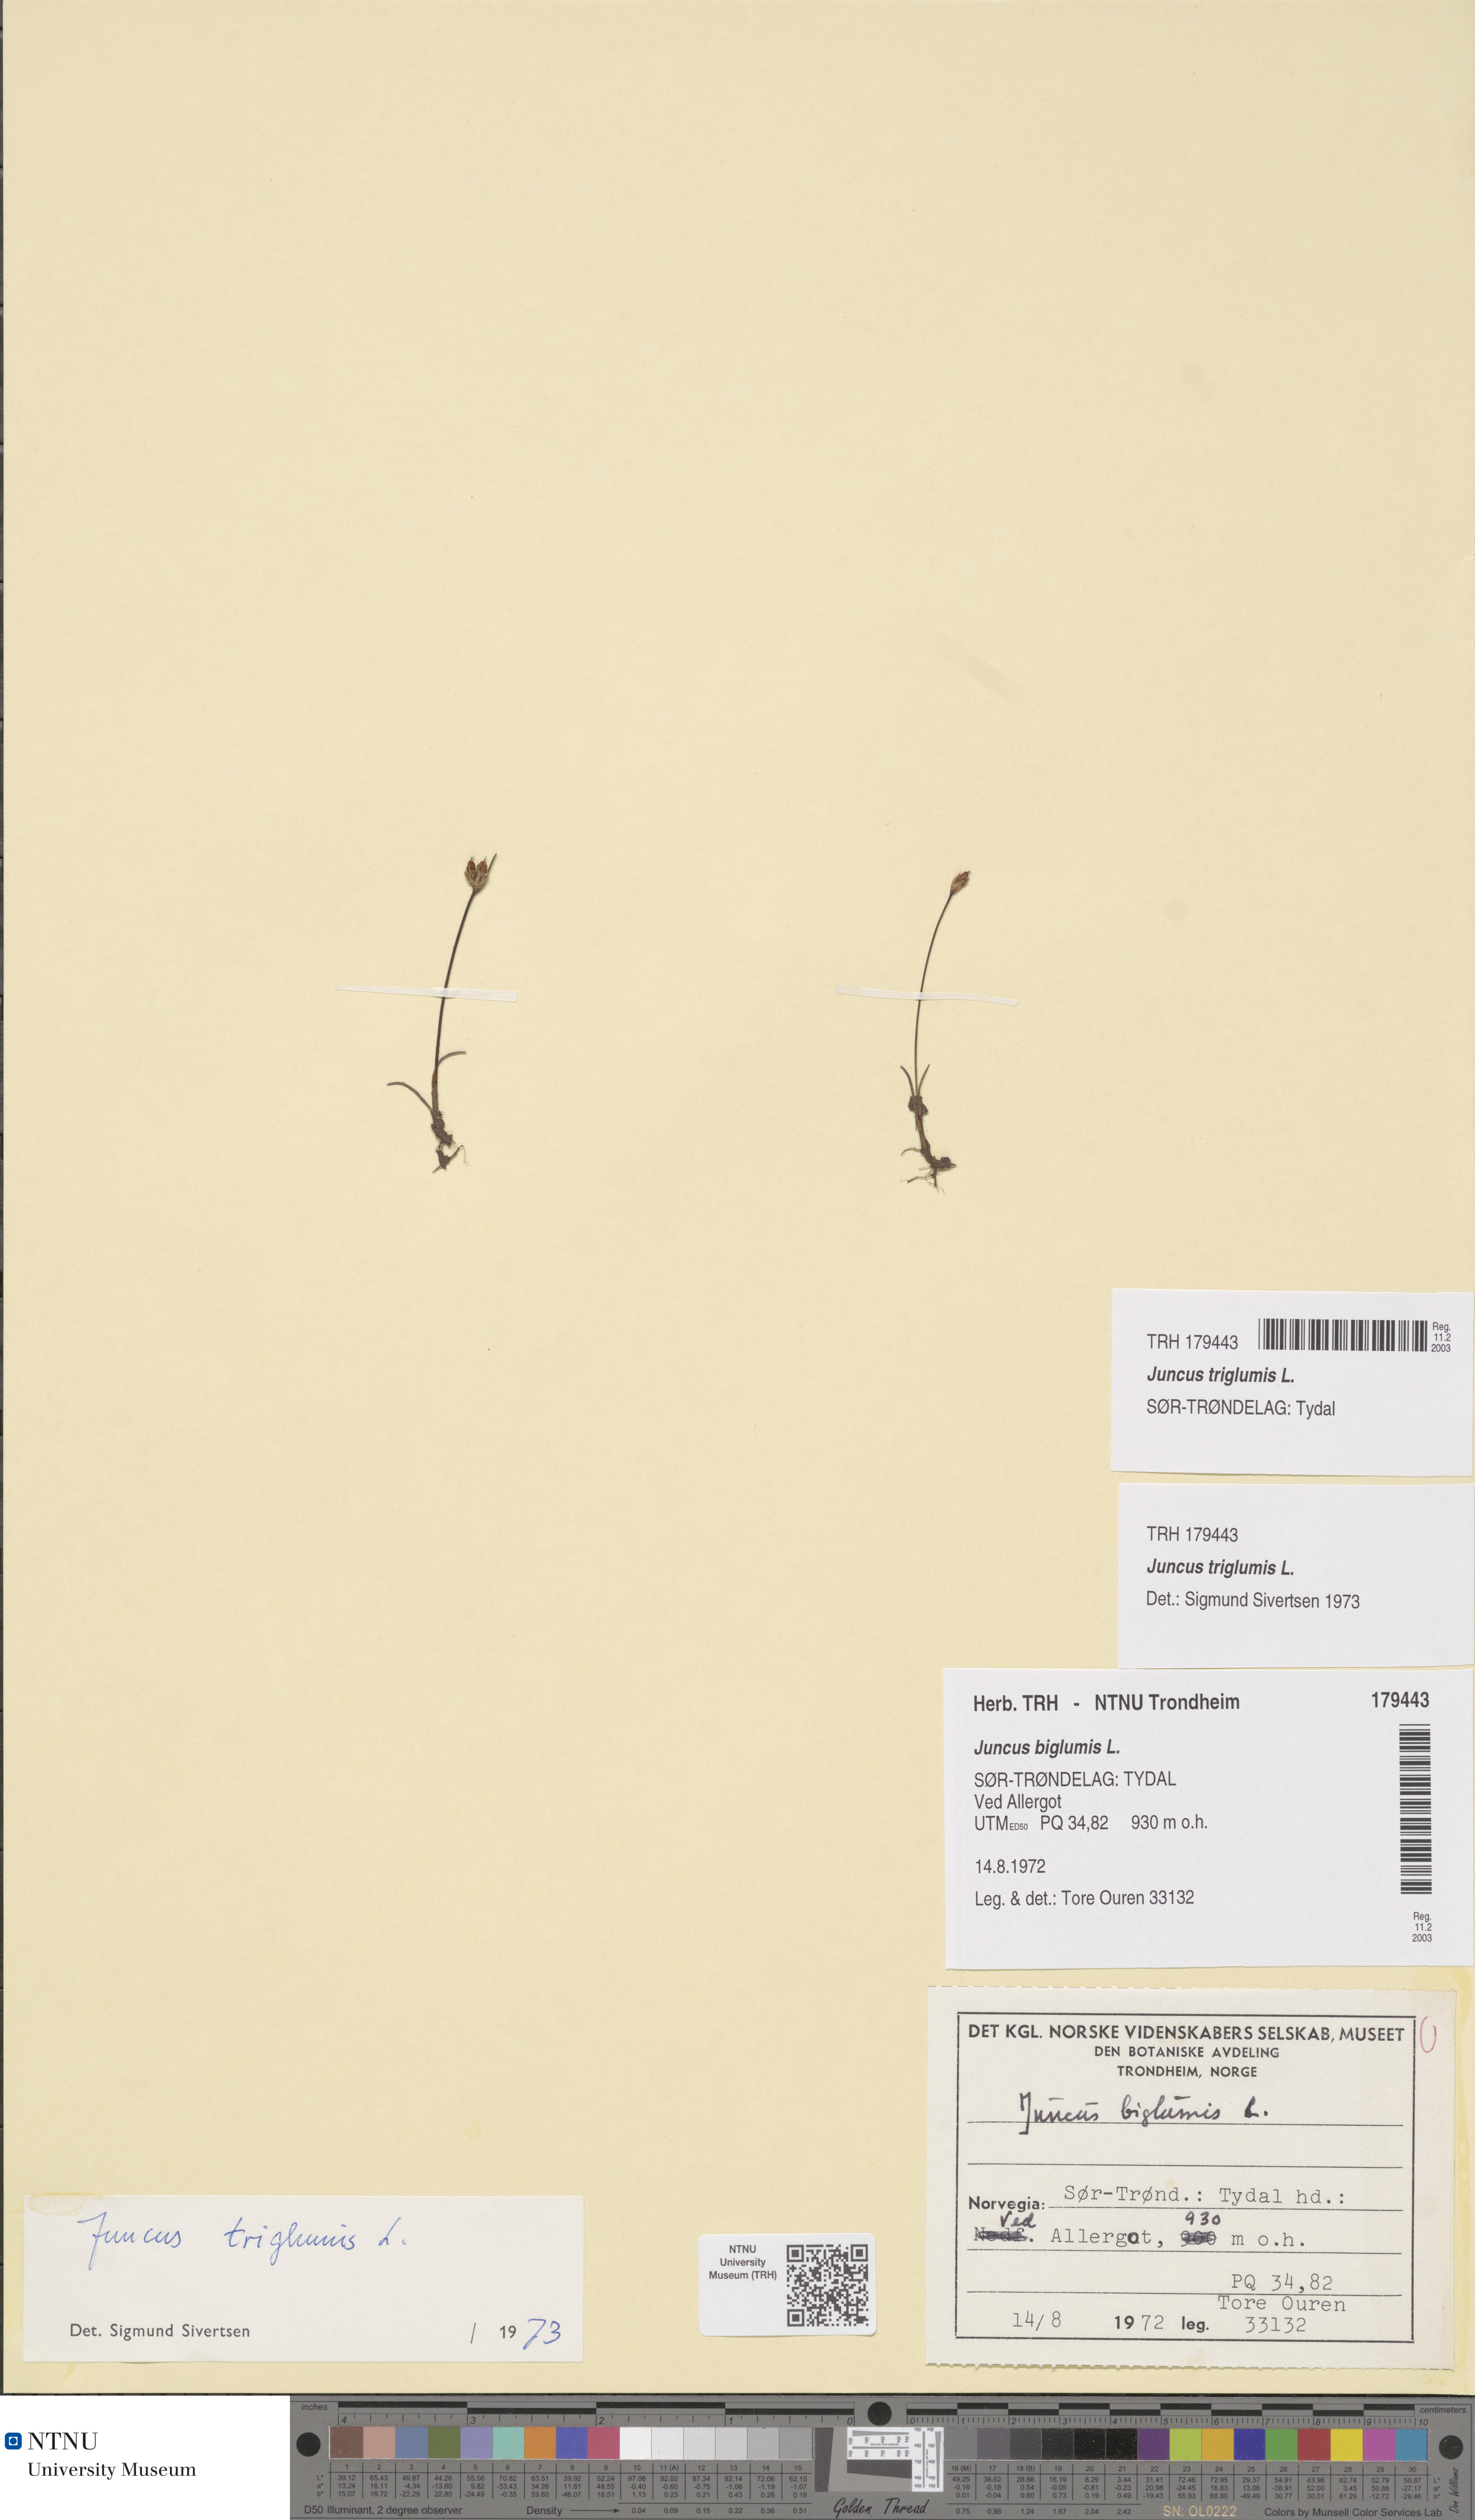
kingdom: Plantae
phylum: Tracheophyta
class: Liliopsida
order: Poales
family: Juncaceae
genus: Juncus
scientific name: Juncus triglumis
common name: Three-flowered rush
